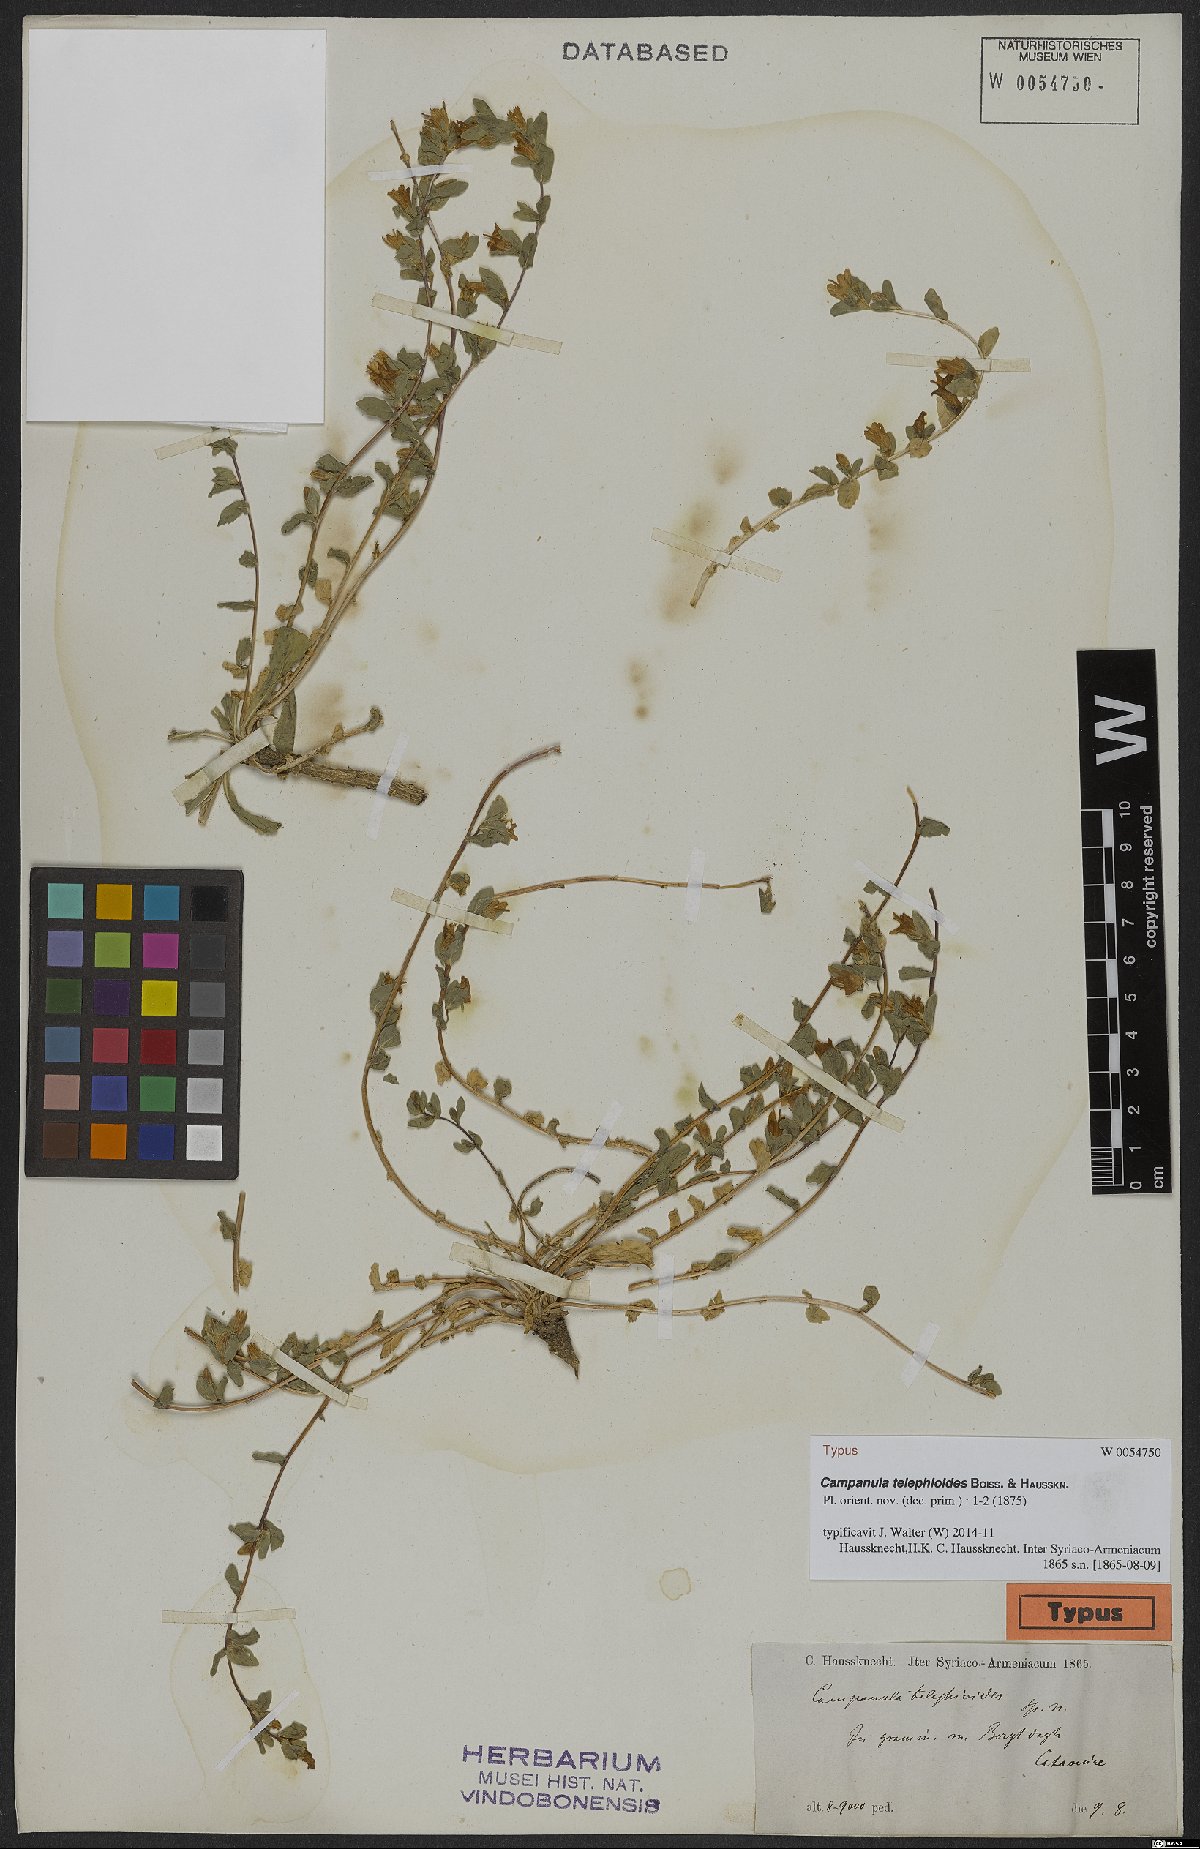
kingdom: Plantae
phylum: Tracheophyta
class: Magnoliopsida
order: Asterales
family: Campanulaceae
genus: Campanula
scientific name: Campanula telephioides
